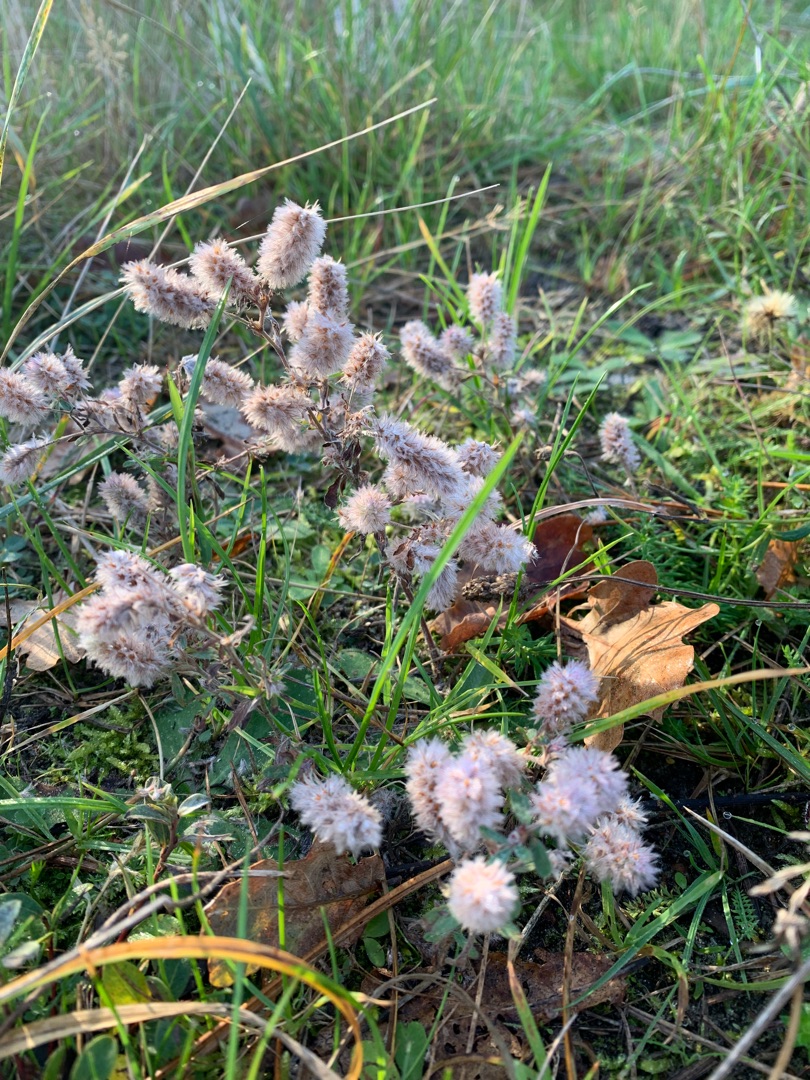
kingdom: Plantae
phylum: Tracheophyta
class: Magnoliopsida
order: Fabales
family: Fabaceae
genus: Trifolium
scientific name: Trifolium arvense
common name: Hare-kløver
